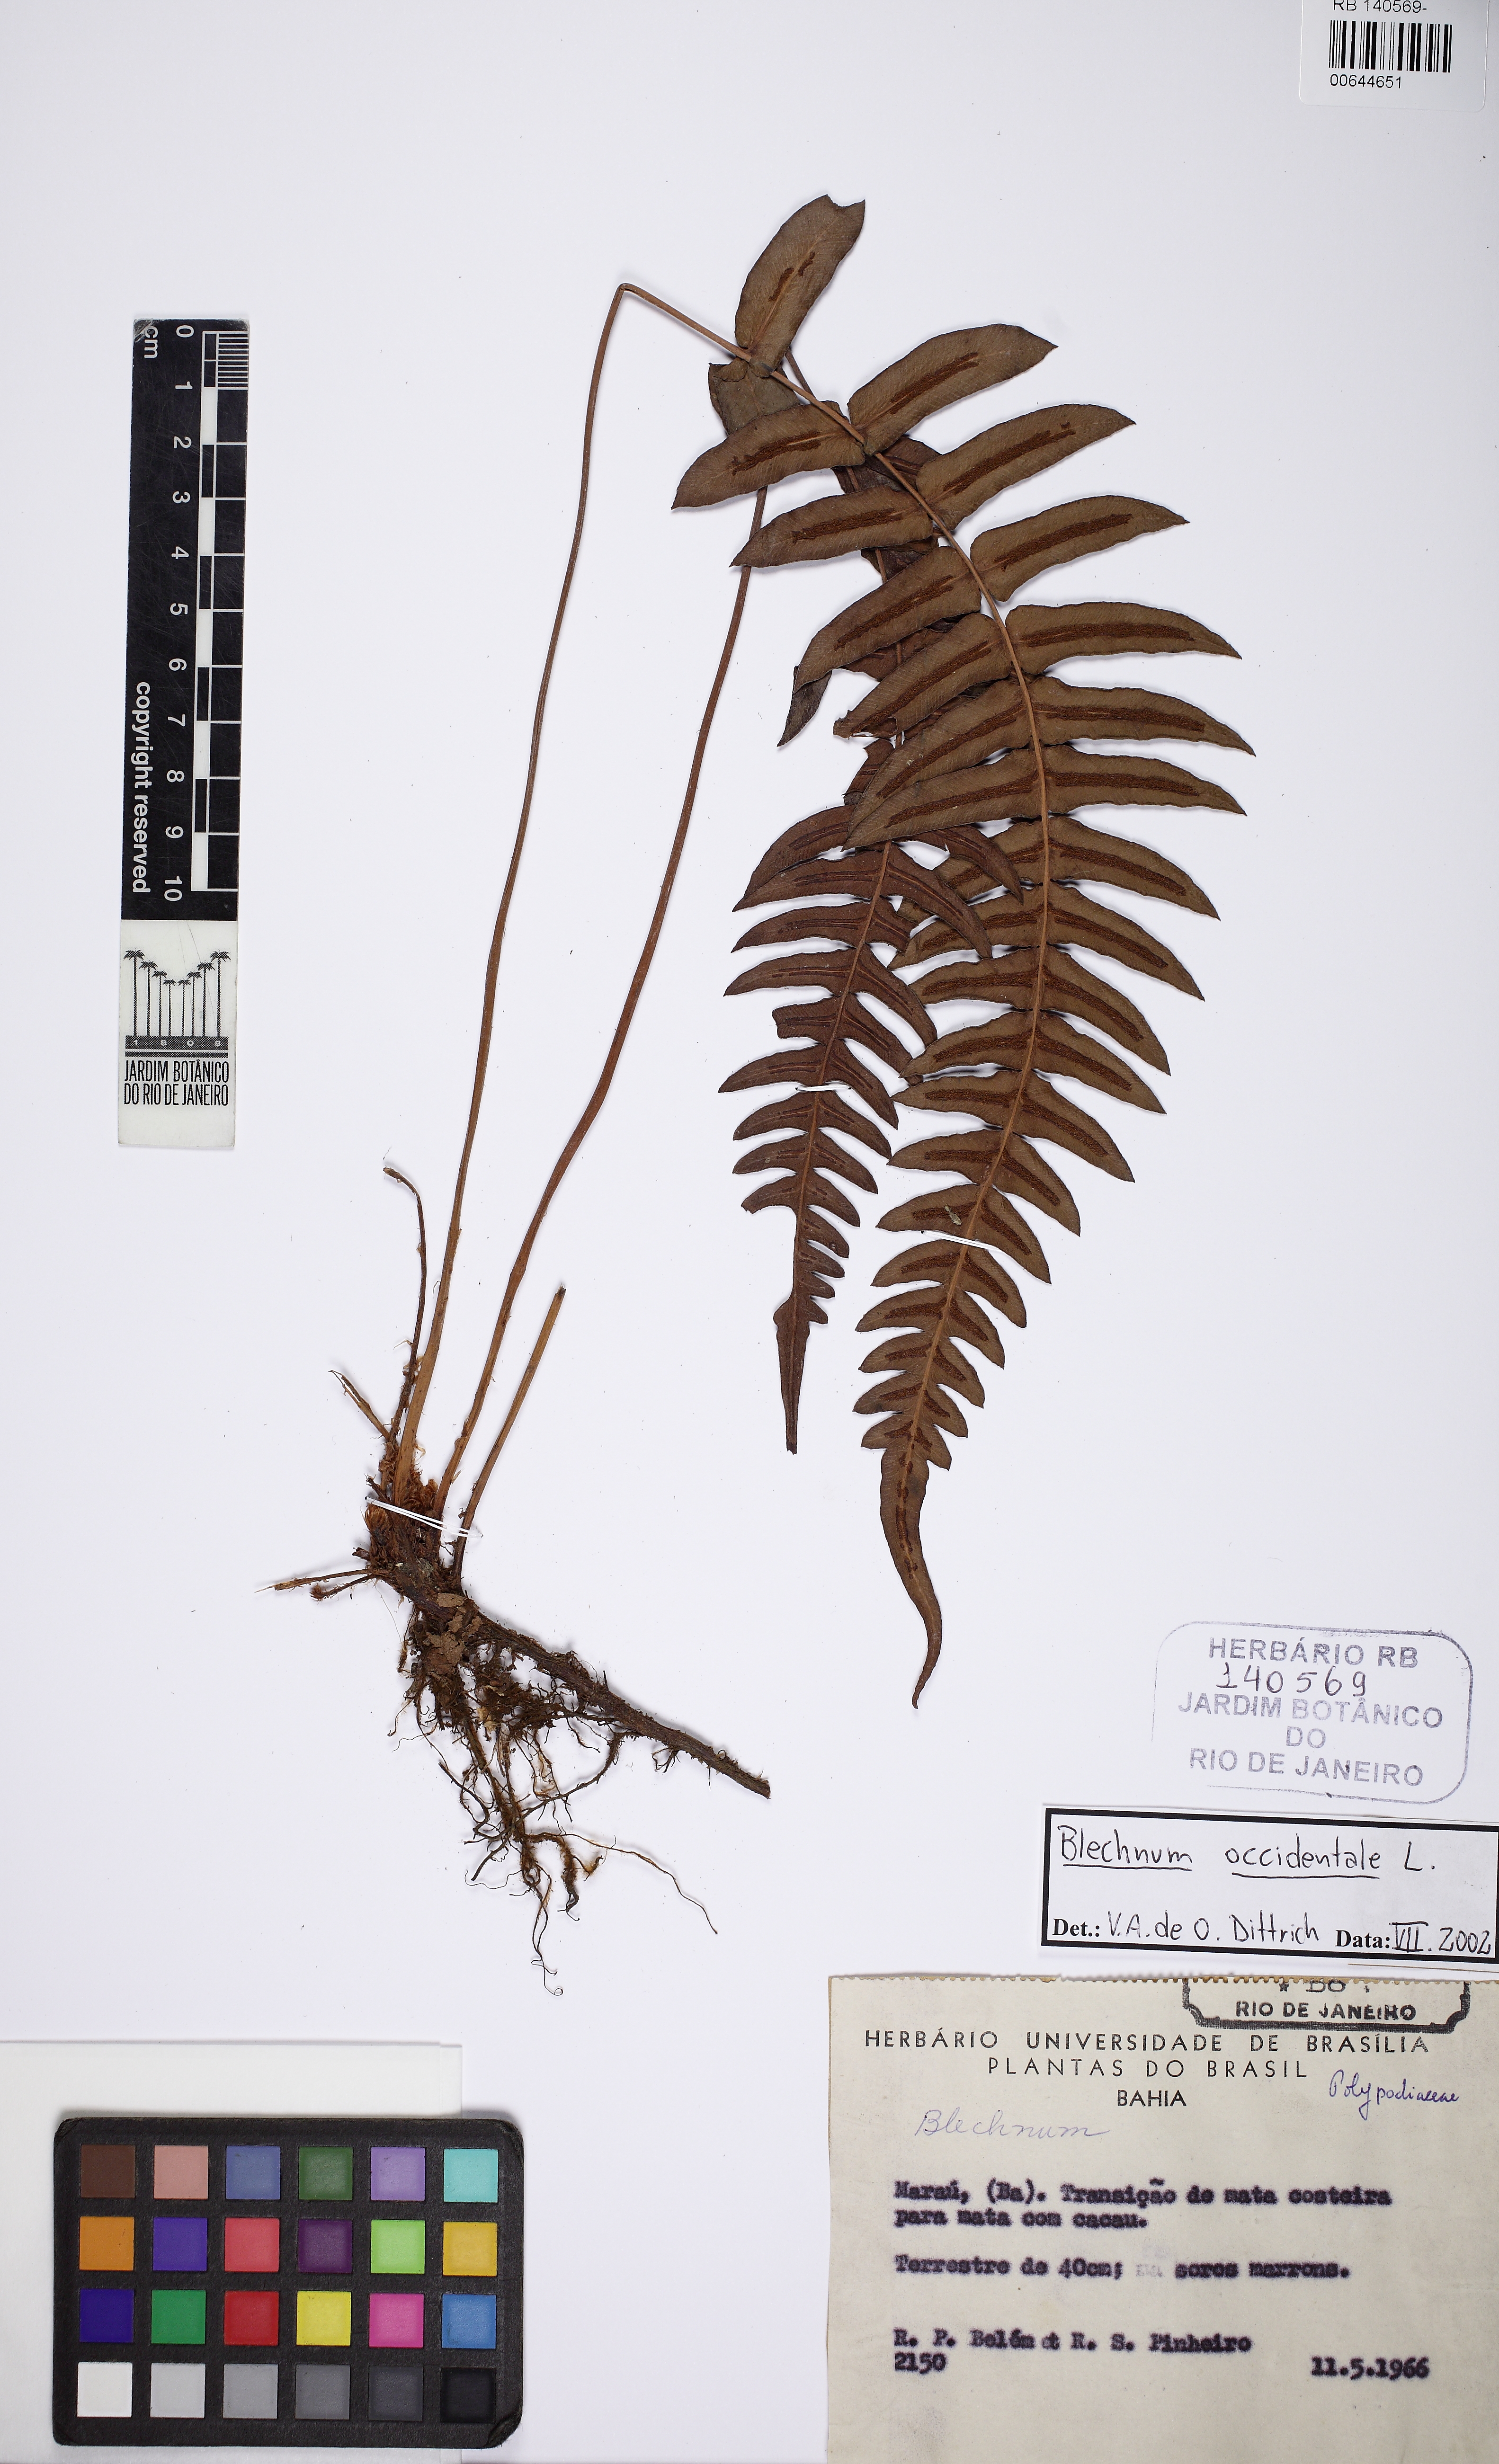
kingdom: Plantae
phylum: Tracheophyta
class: Polypodiopsida
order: Polypodiales
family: Blechnaceae
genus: Blechnum
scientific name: Blechnum occidentale
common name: Hammock fern
